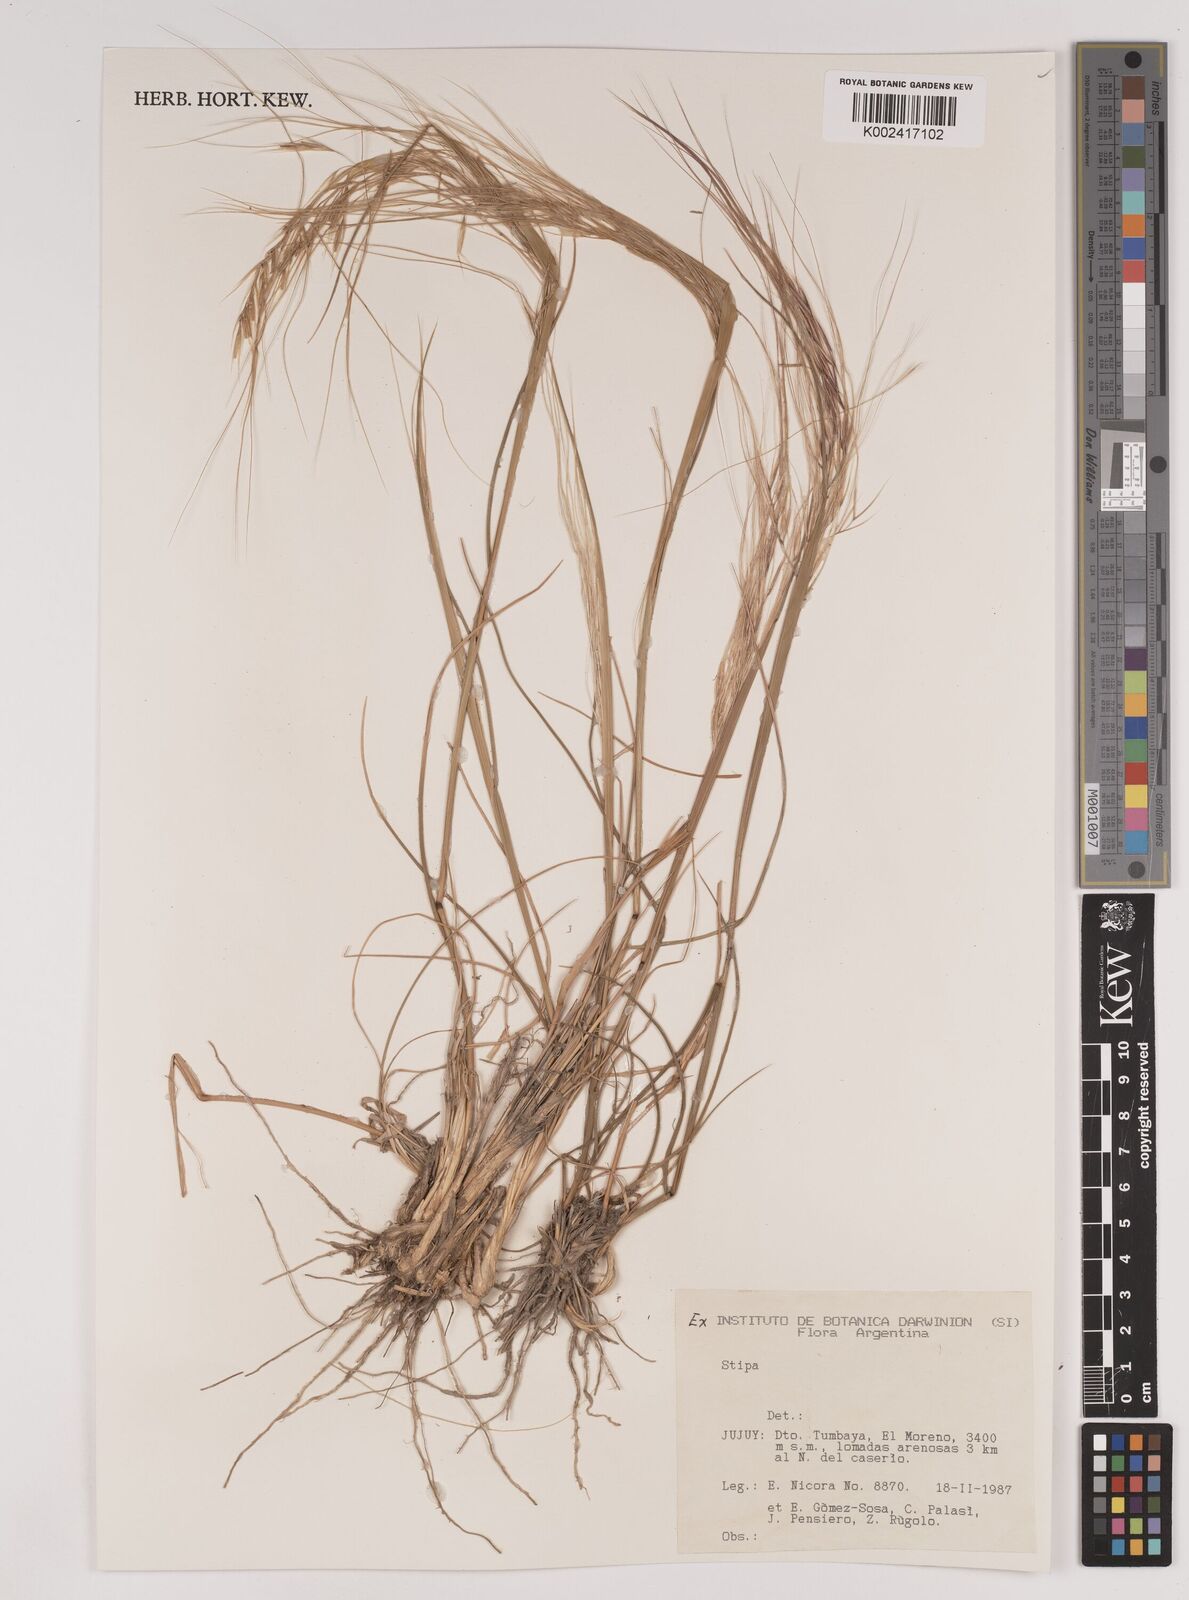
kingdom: Plantae
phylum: Tracheophyta
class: Liliopsida
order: Poales
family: Poaceae
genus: Stipa
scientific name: Stipa
